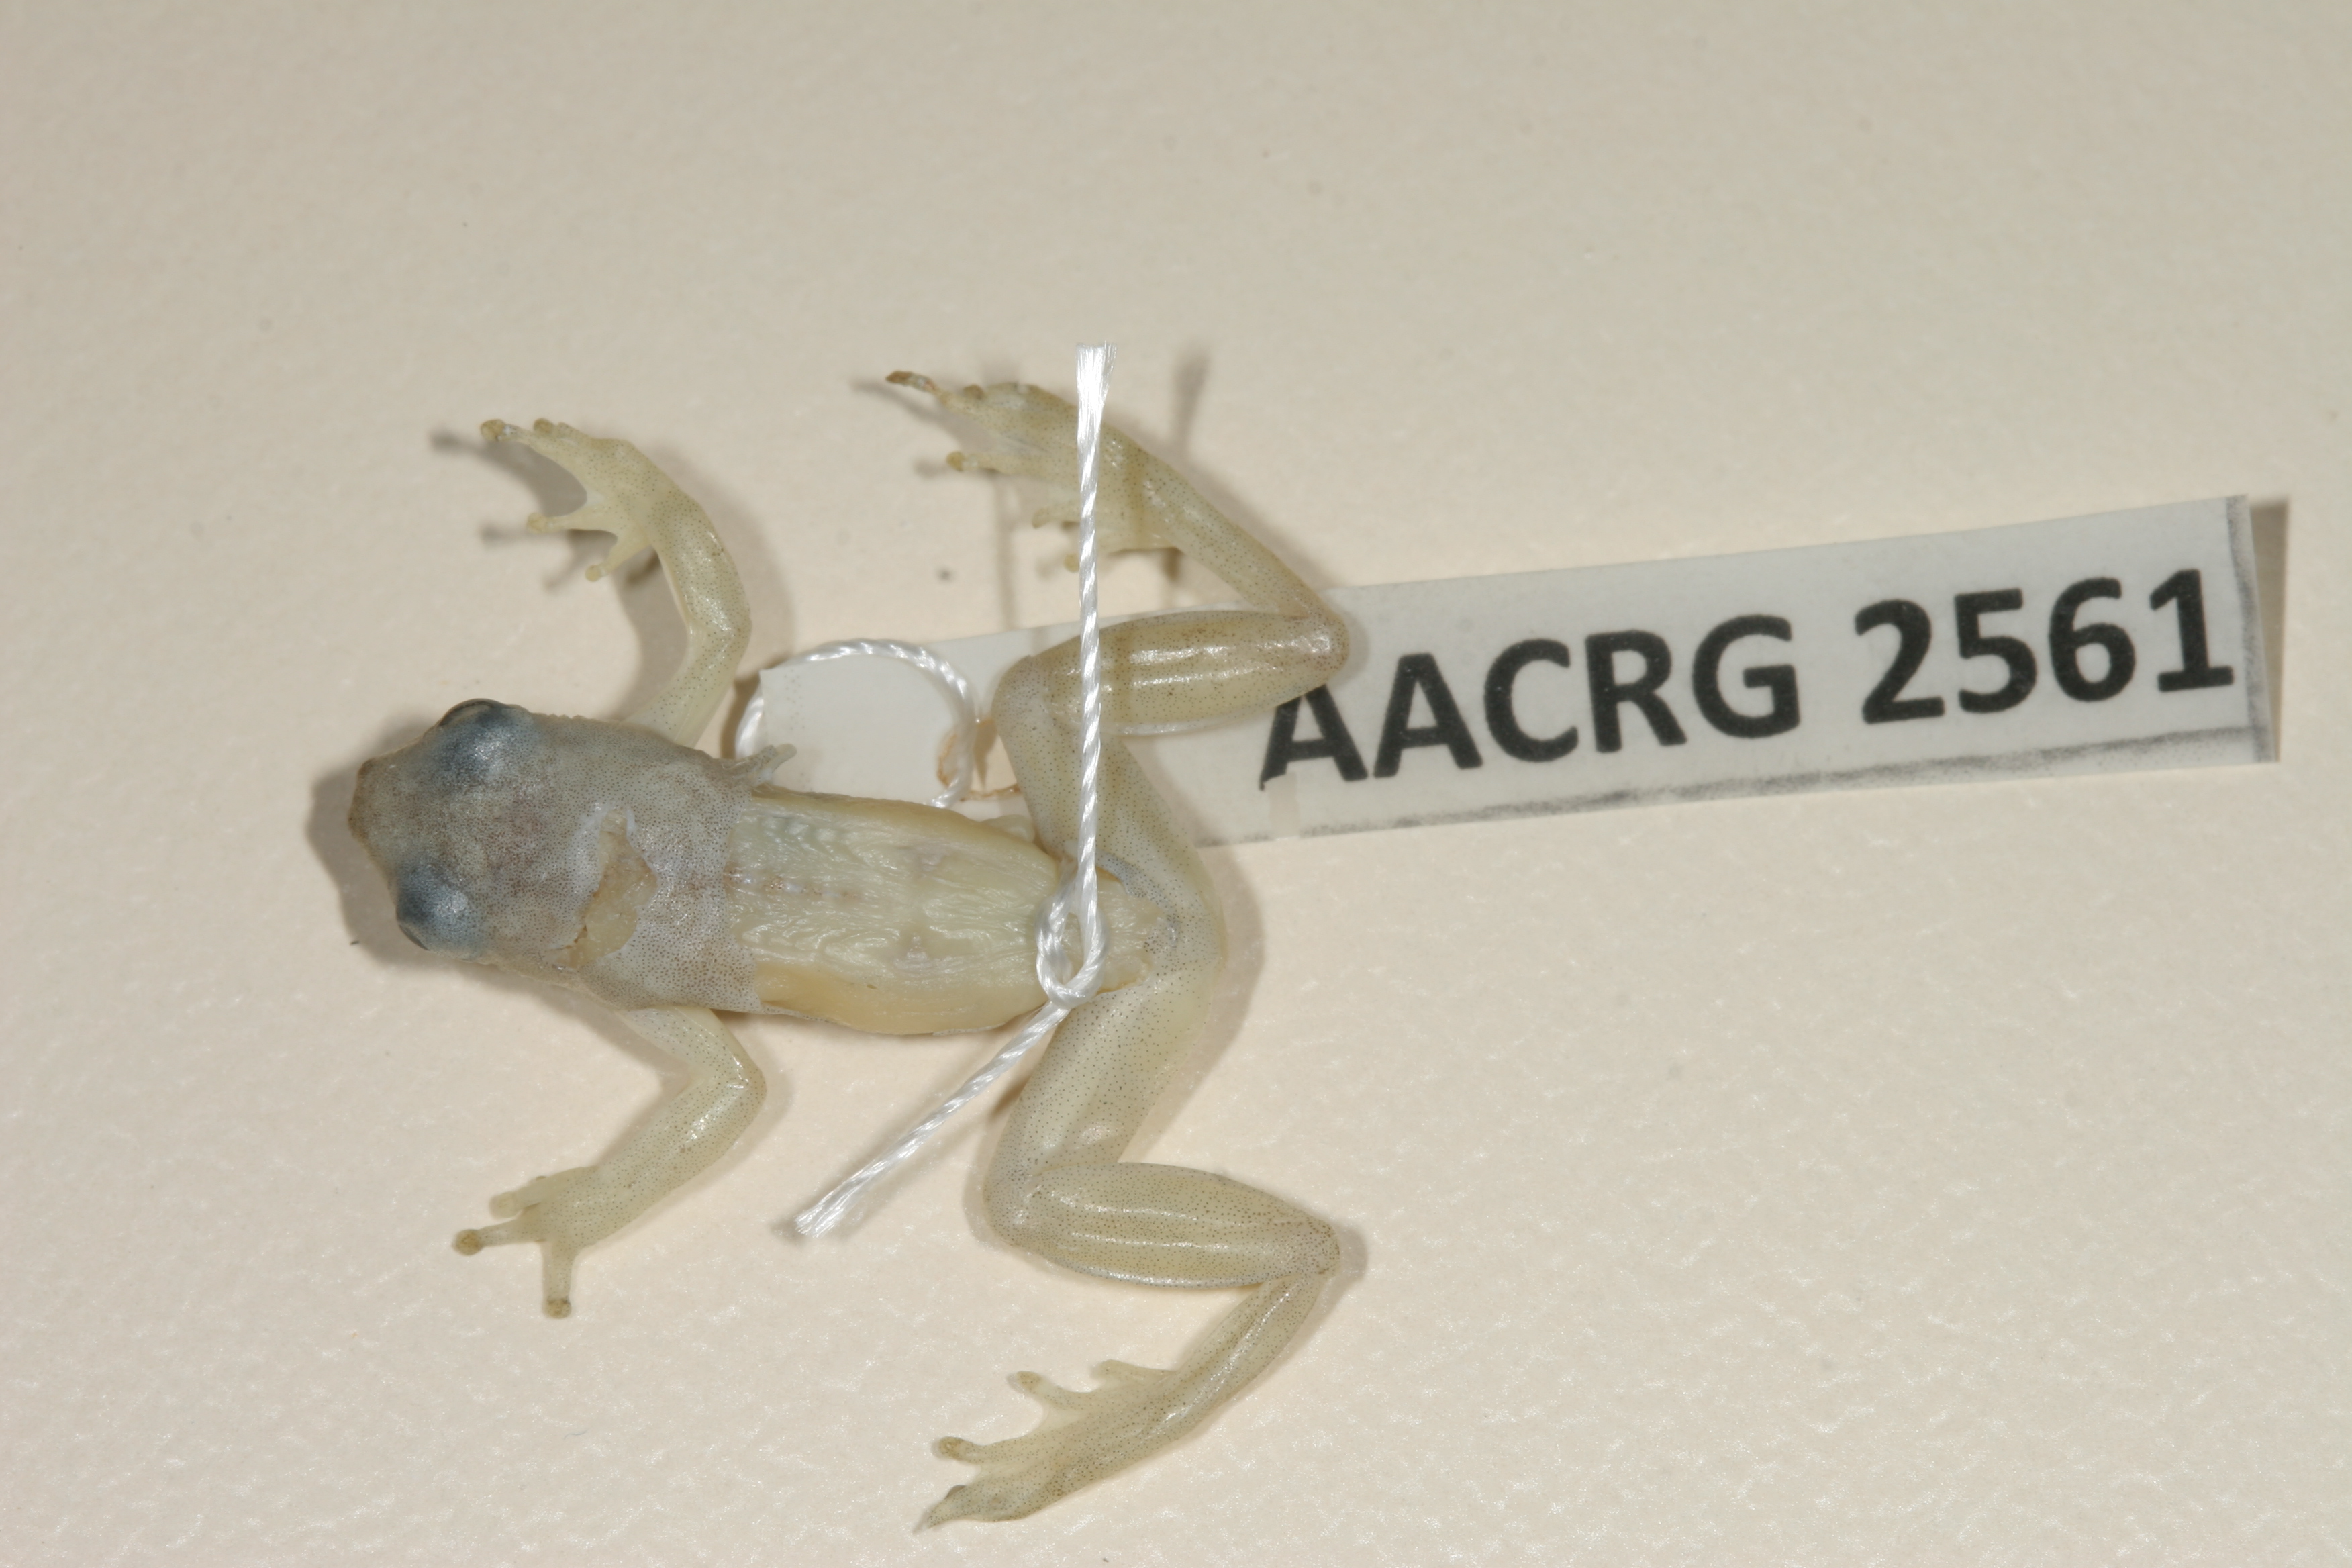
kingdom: Animalia
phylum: Chordata
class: Amphibia
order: Anura
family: Hyperoliidae
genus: Afrixalus
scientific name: Afrixalus aureus
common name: Golden banana frog
